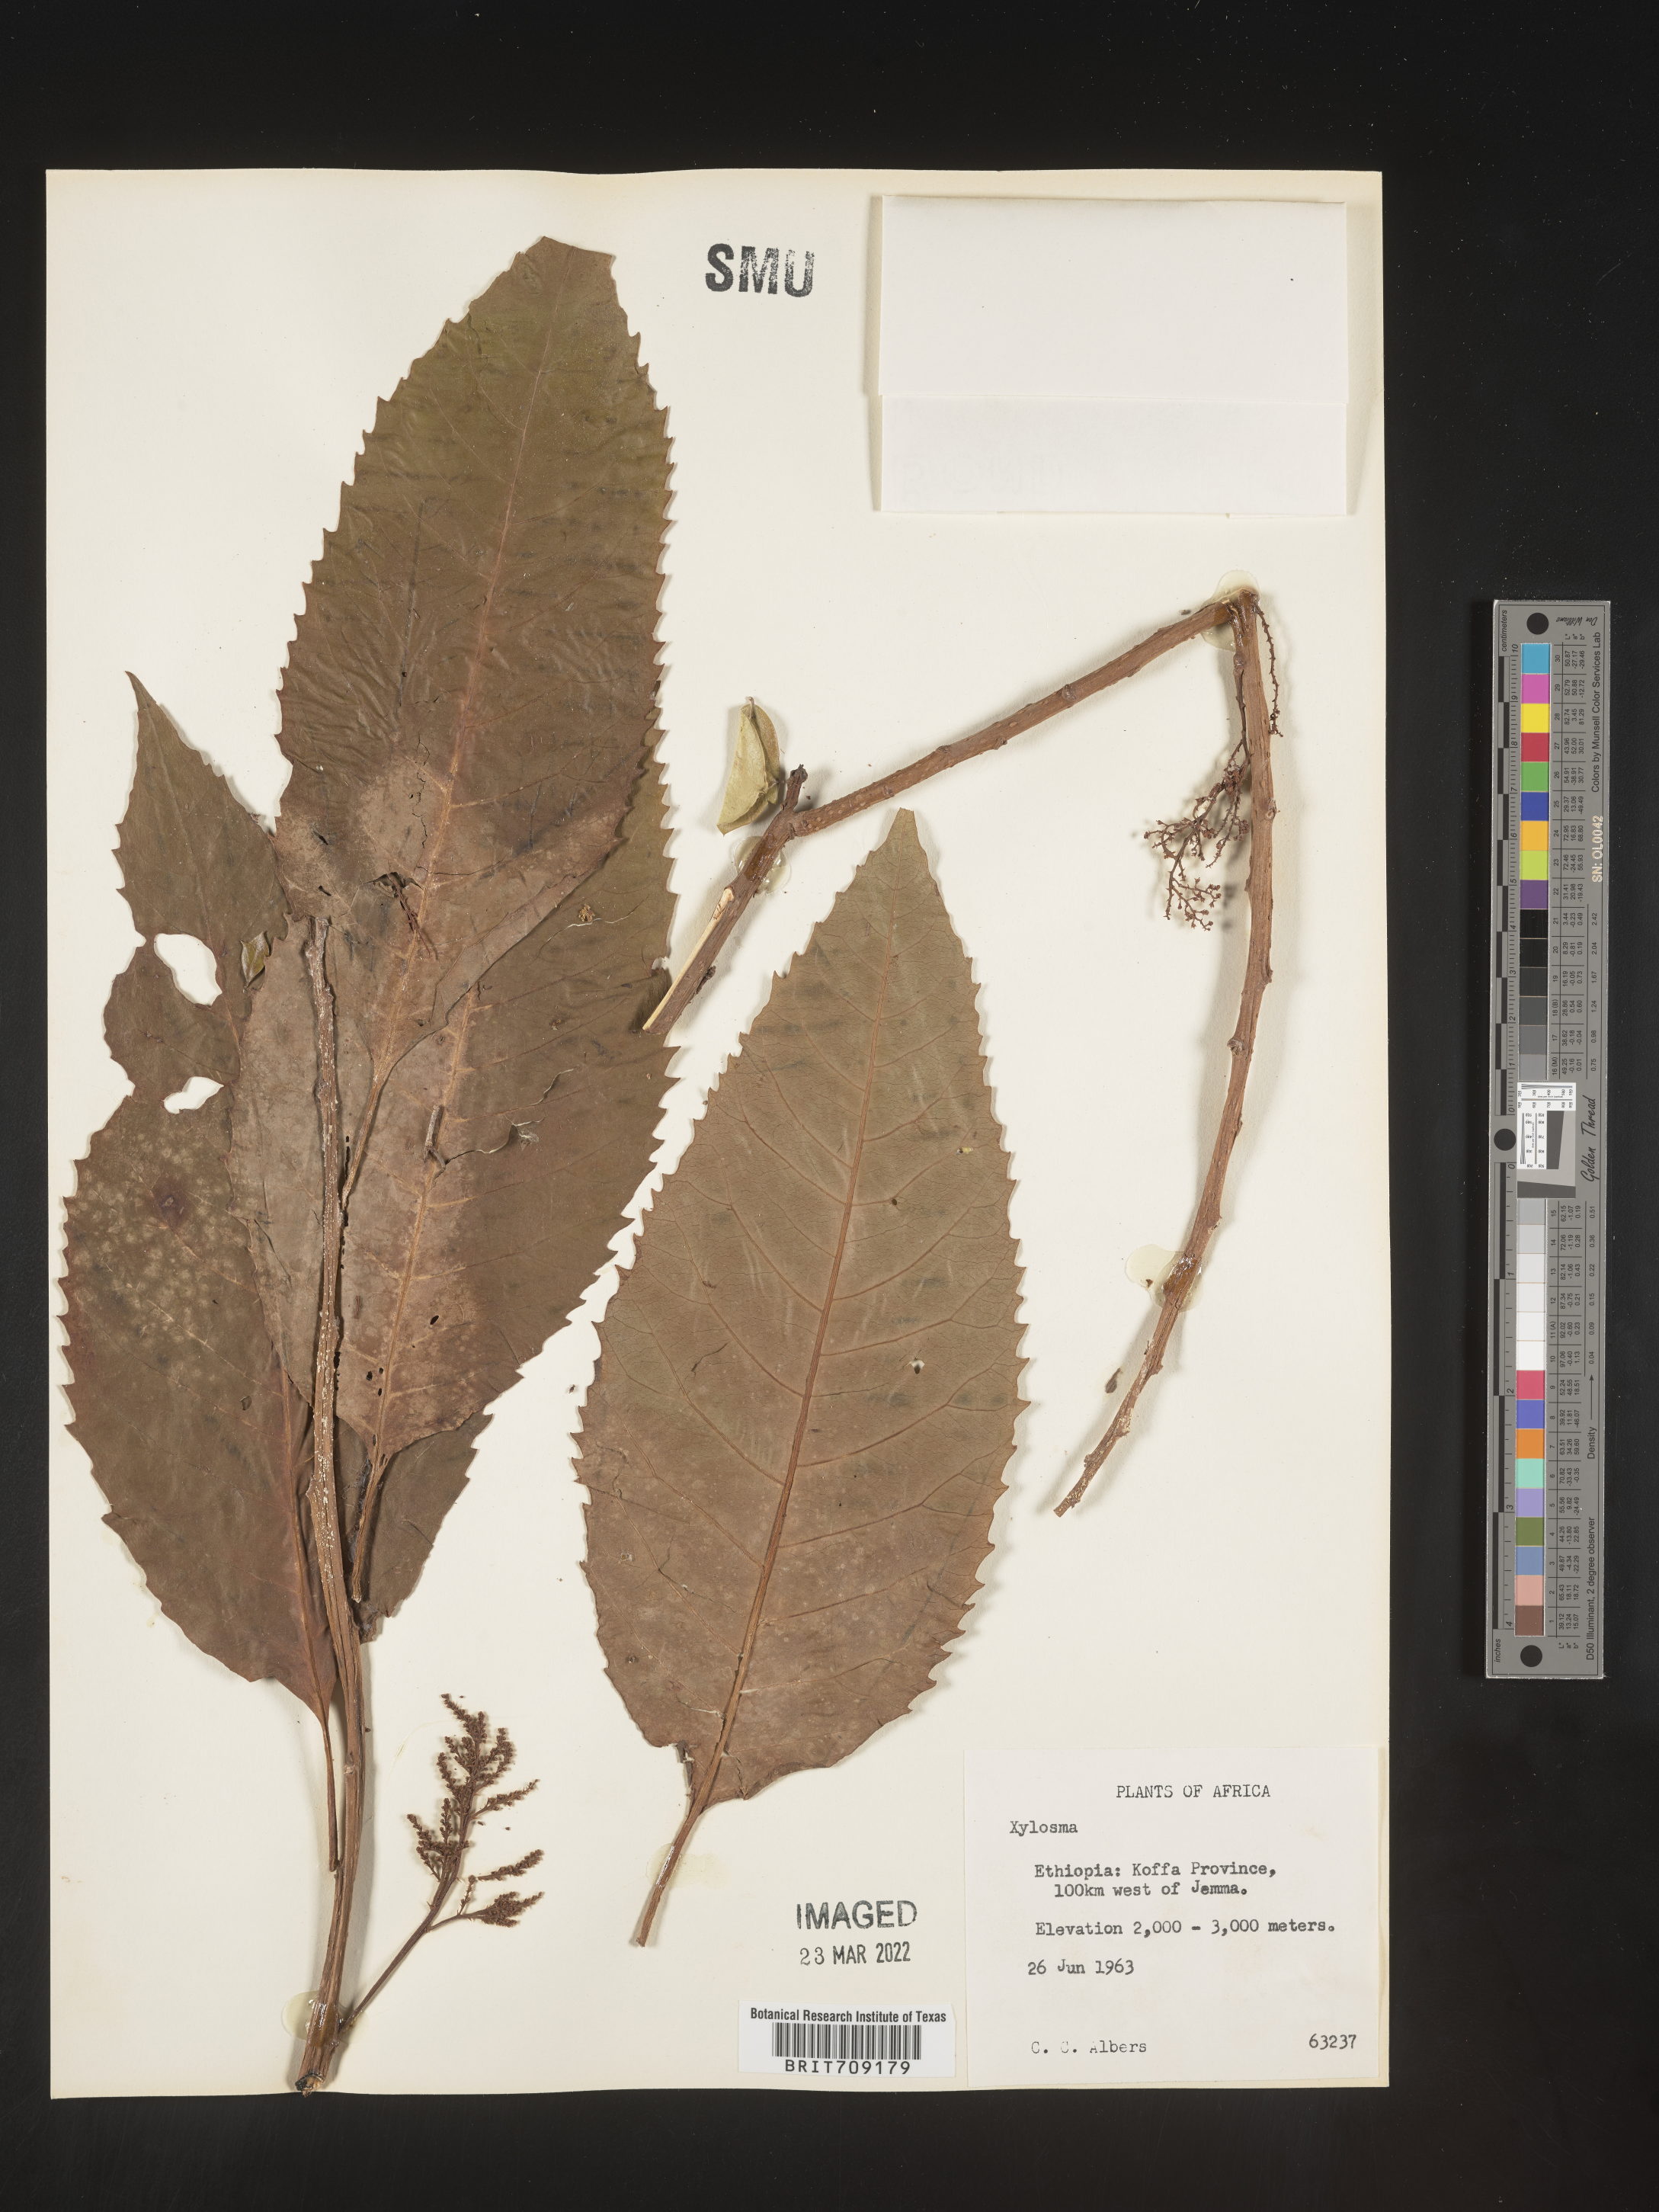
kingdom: Plantae
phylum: Tracheophyta
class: Magnoliopsida
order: Malpighiales
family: Salicaceae
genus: Xylosma
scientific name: Xylosma
